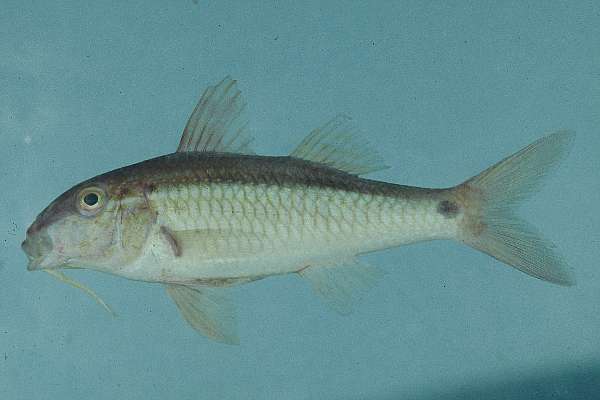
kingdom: Animalia
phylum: Chordata
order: Perciformes
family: Mullidae
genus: Parupeneus
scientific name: Parupeneus barberinus
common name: Dash-and-dot goatfish
